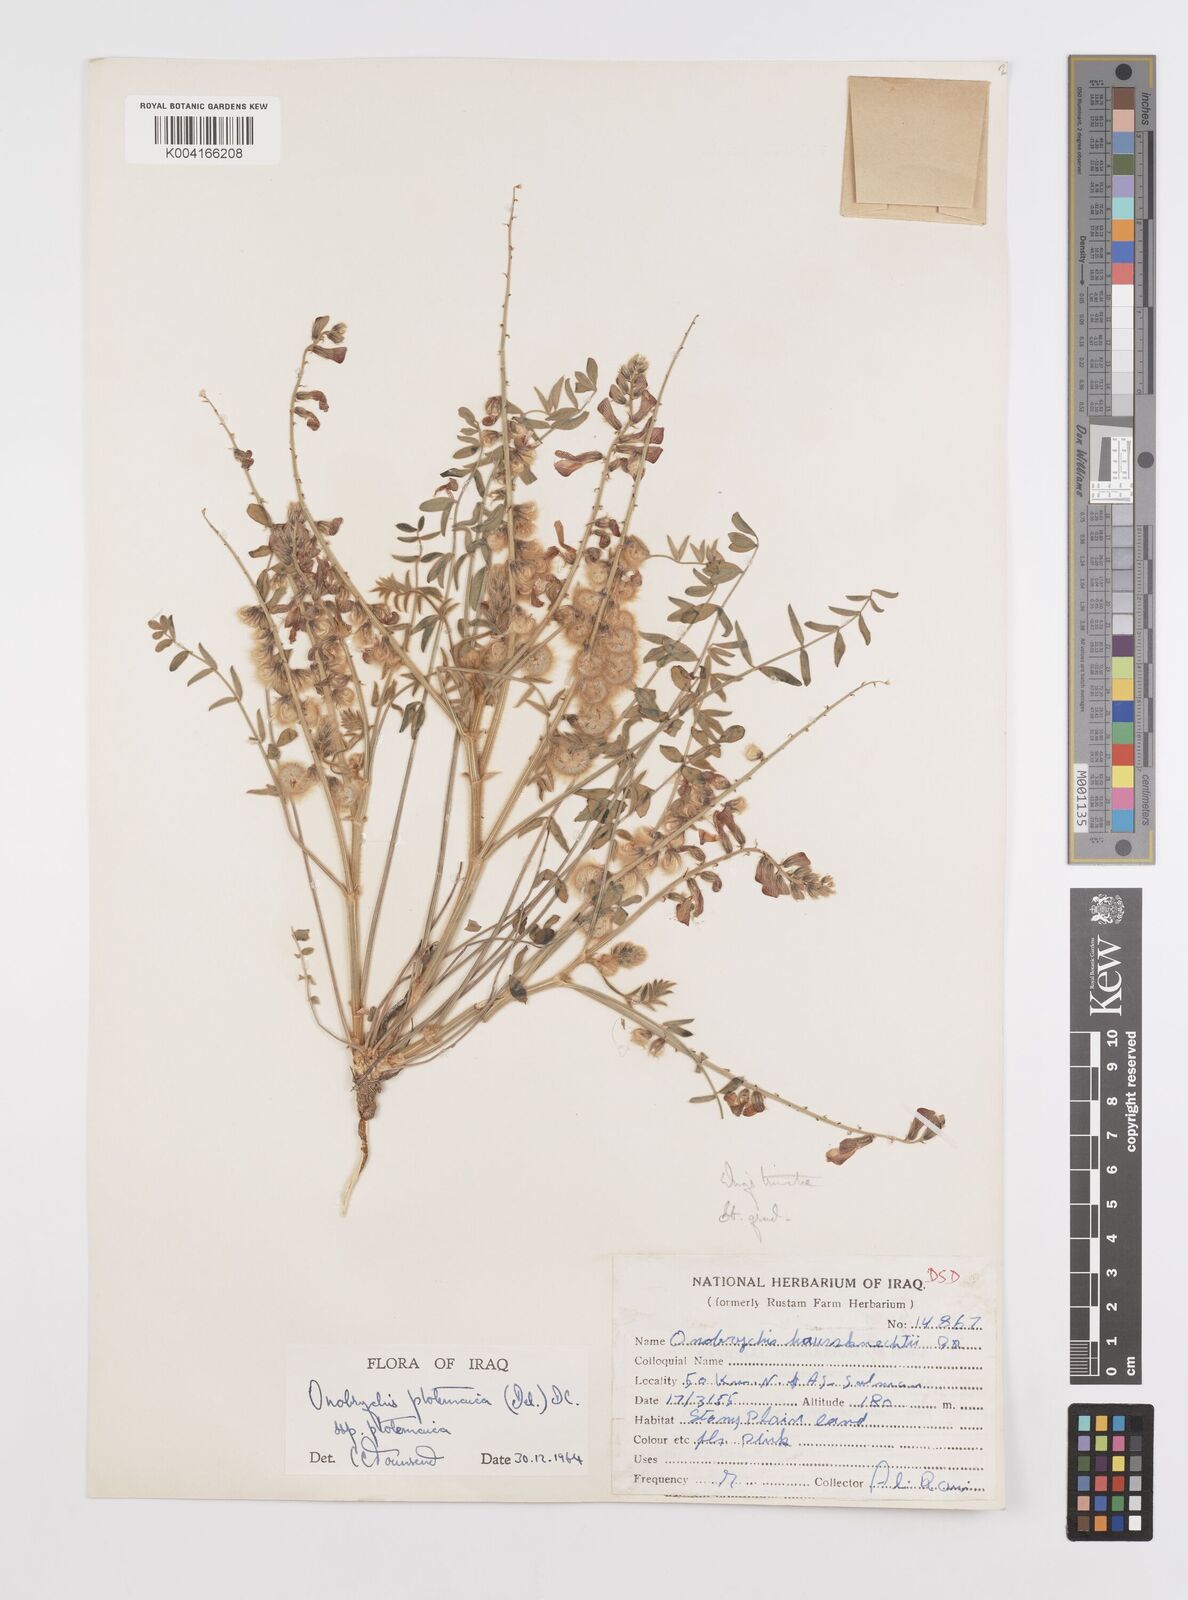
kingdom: Plantae
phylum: Tracheophyta
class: Magnoliopsida
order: Fabales
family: Fabaceae
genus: Onobrychis
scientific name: Onobrychis ptolemaica
